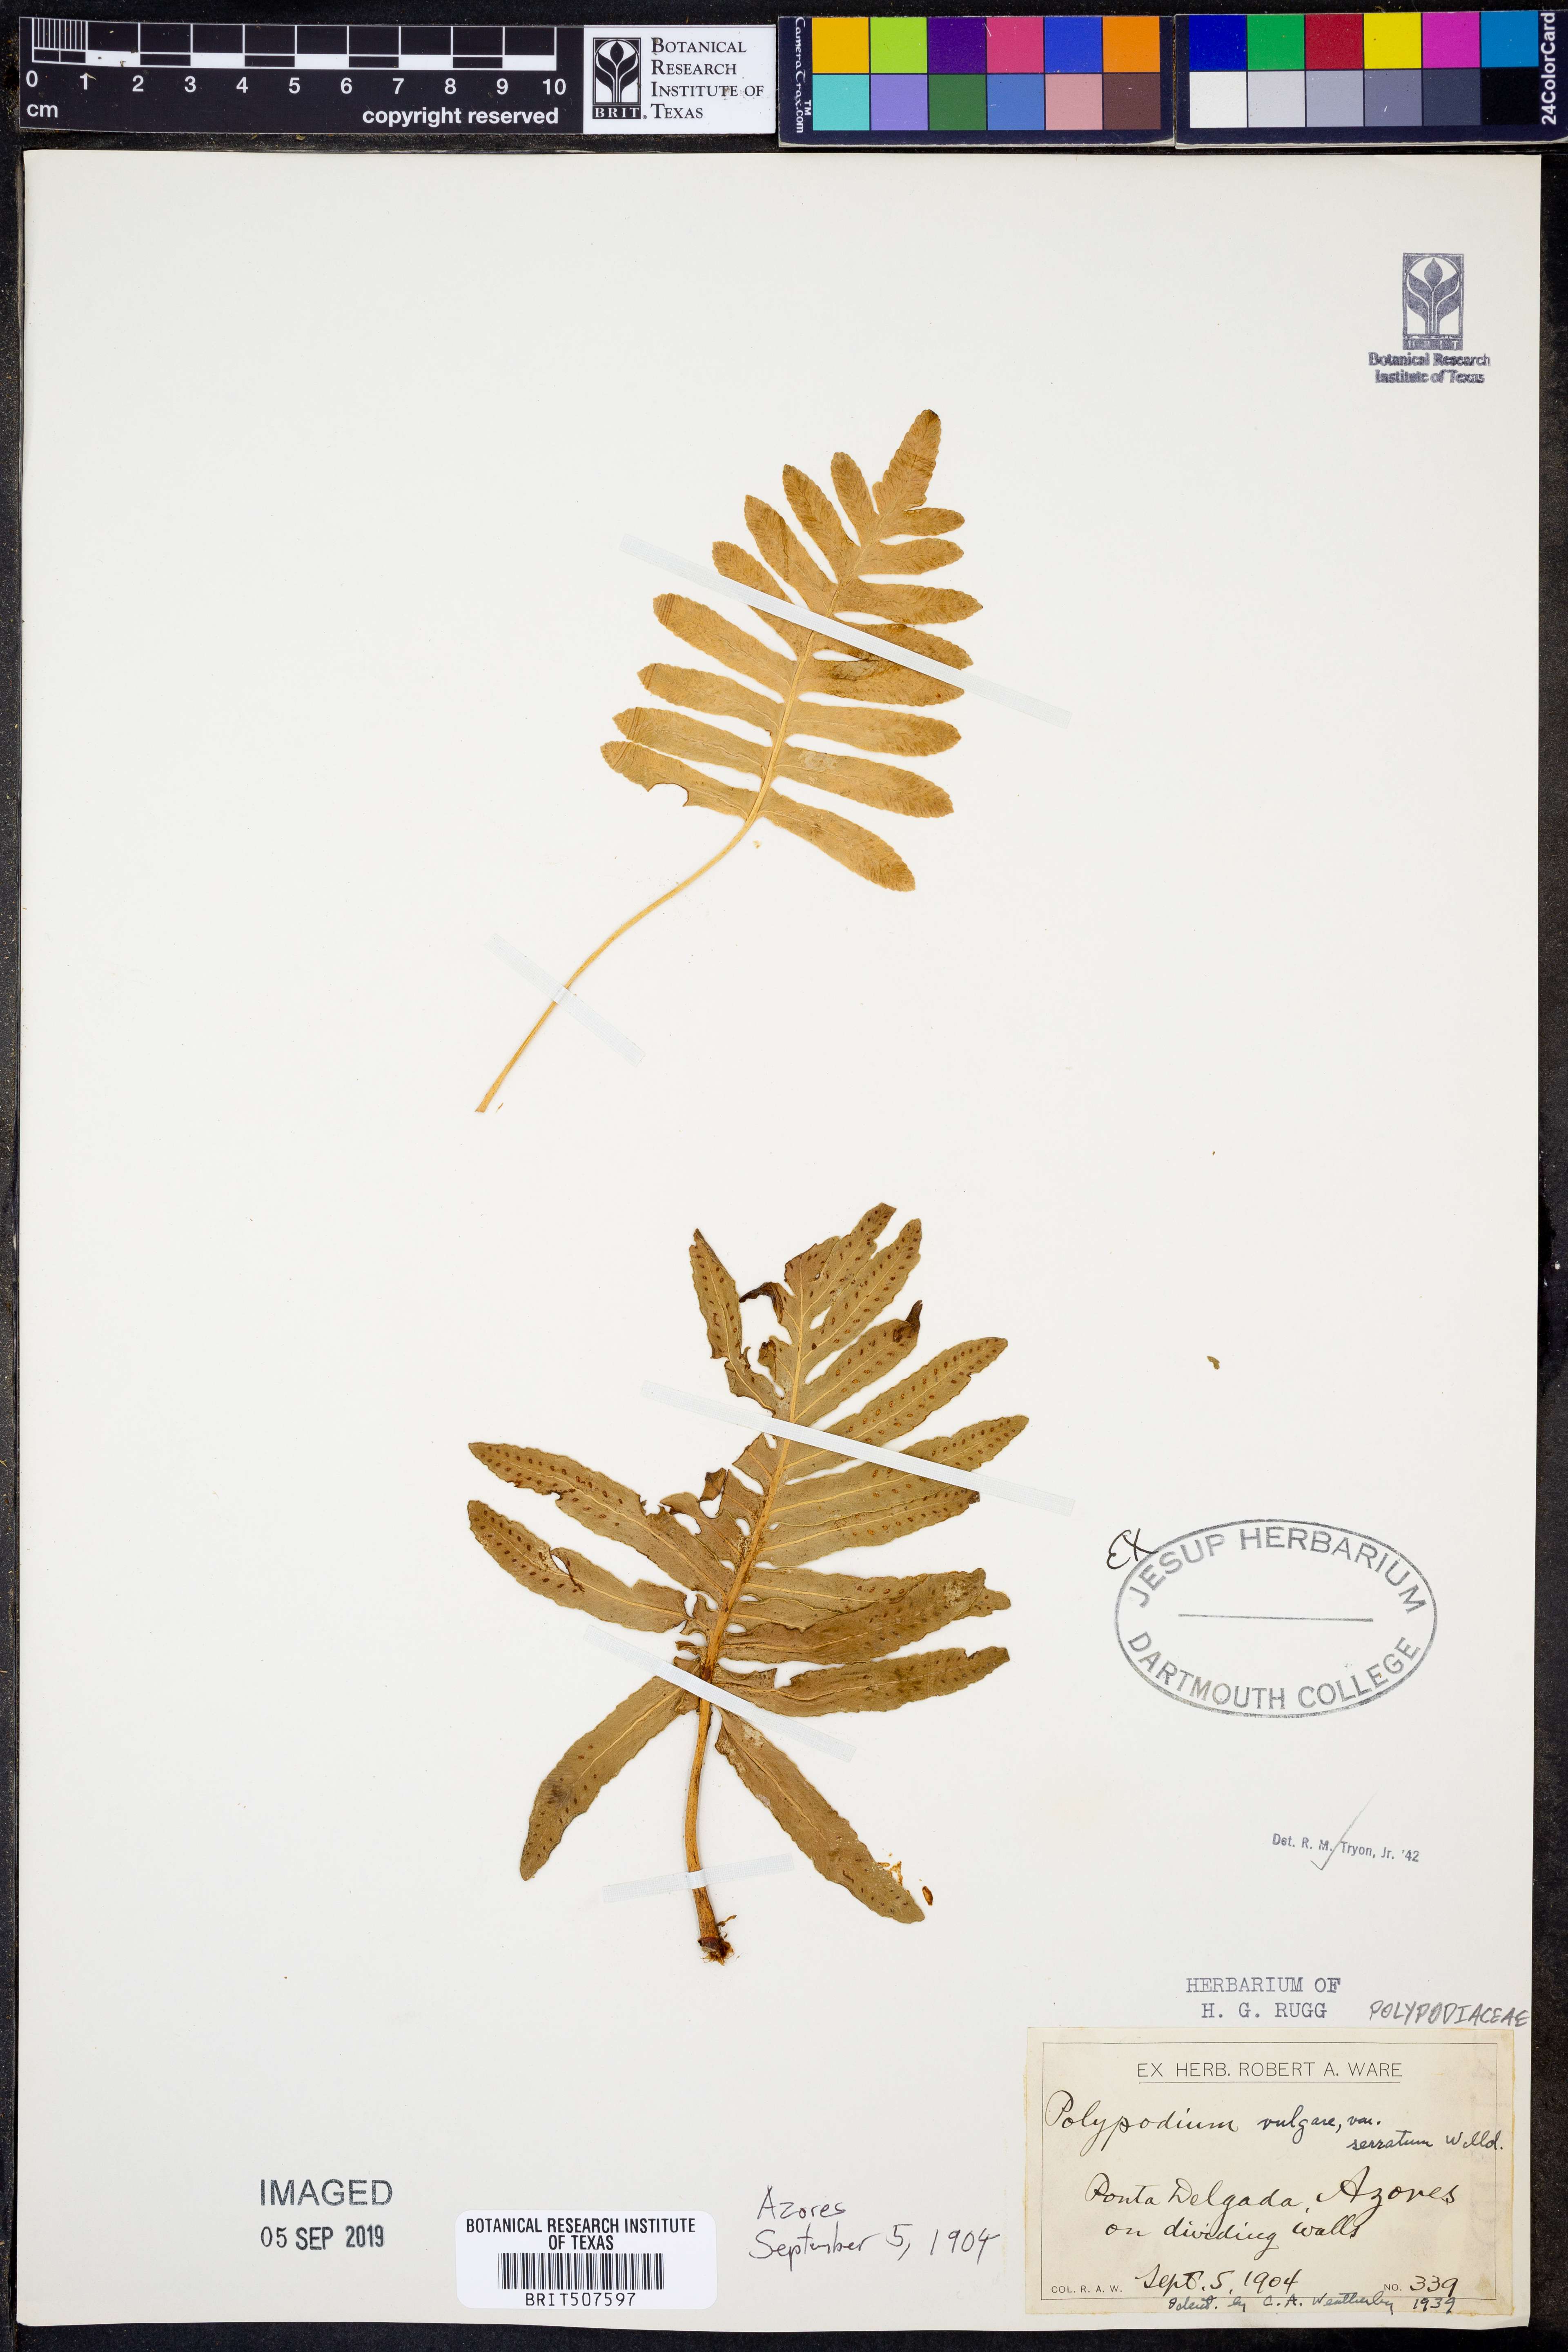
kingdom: Plantae
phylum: Tracheophyta
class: Polypodiopsida
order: Polypodiales
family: Polypodiaceae
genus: Polypodium
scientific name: Polypodium vulgare
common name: Common polypody
